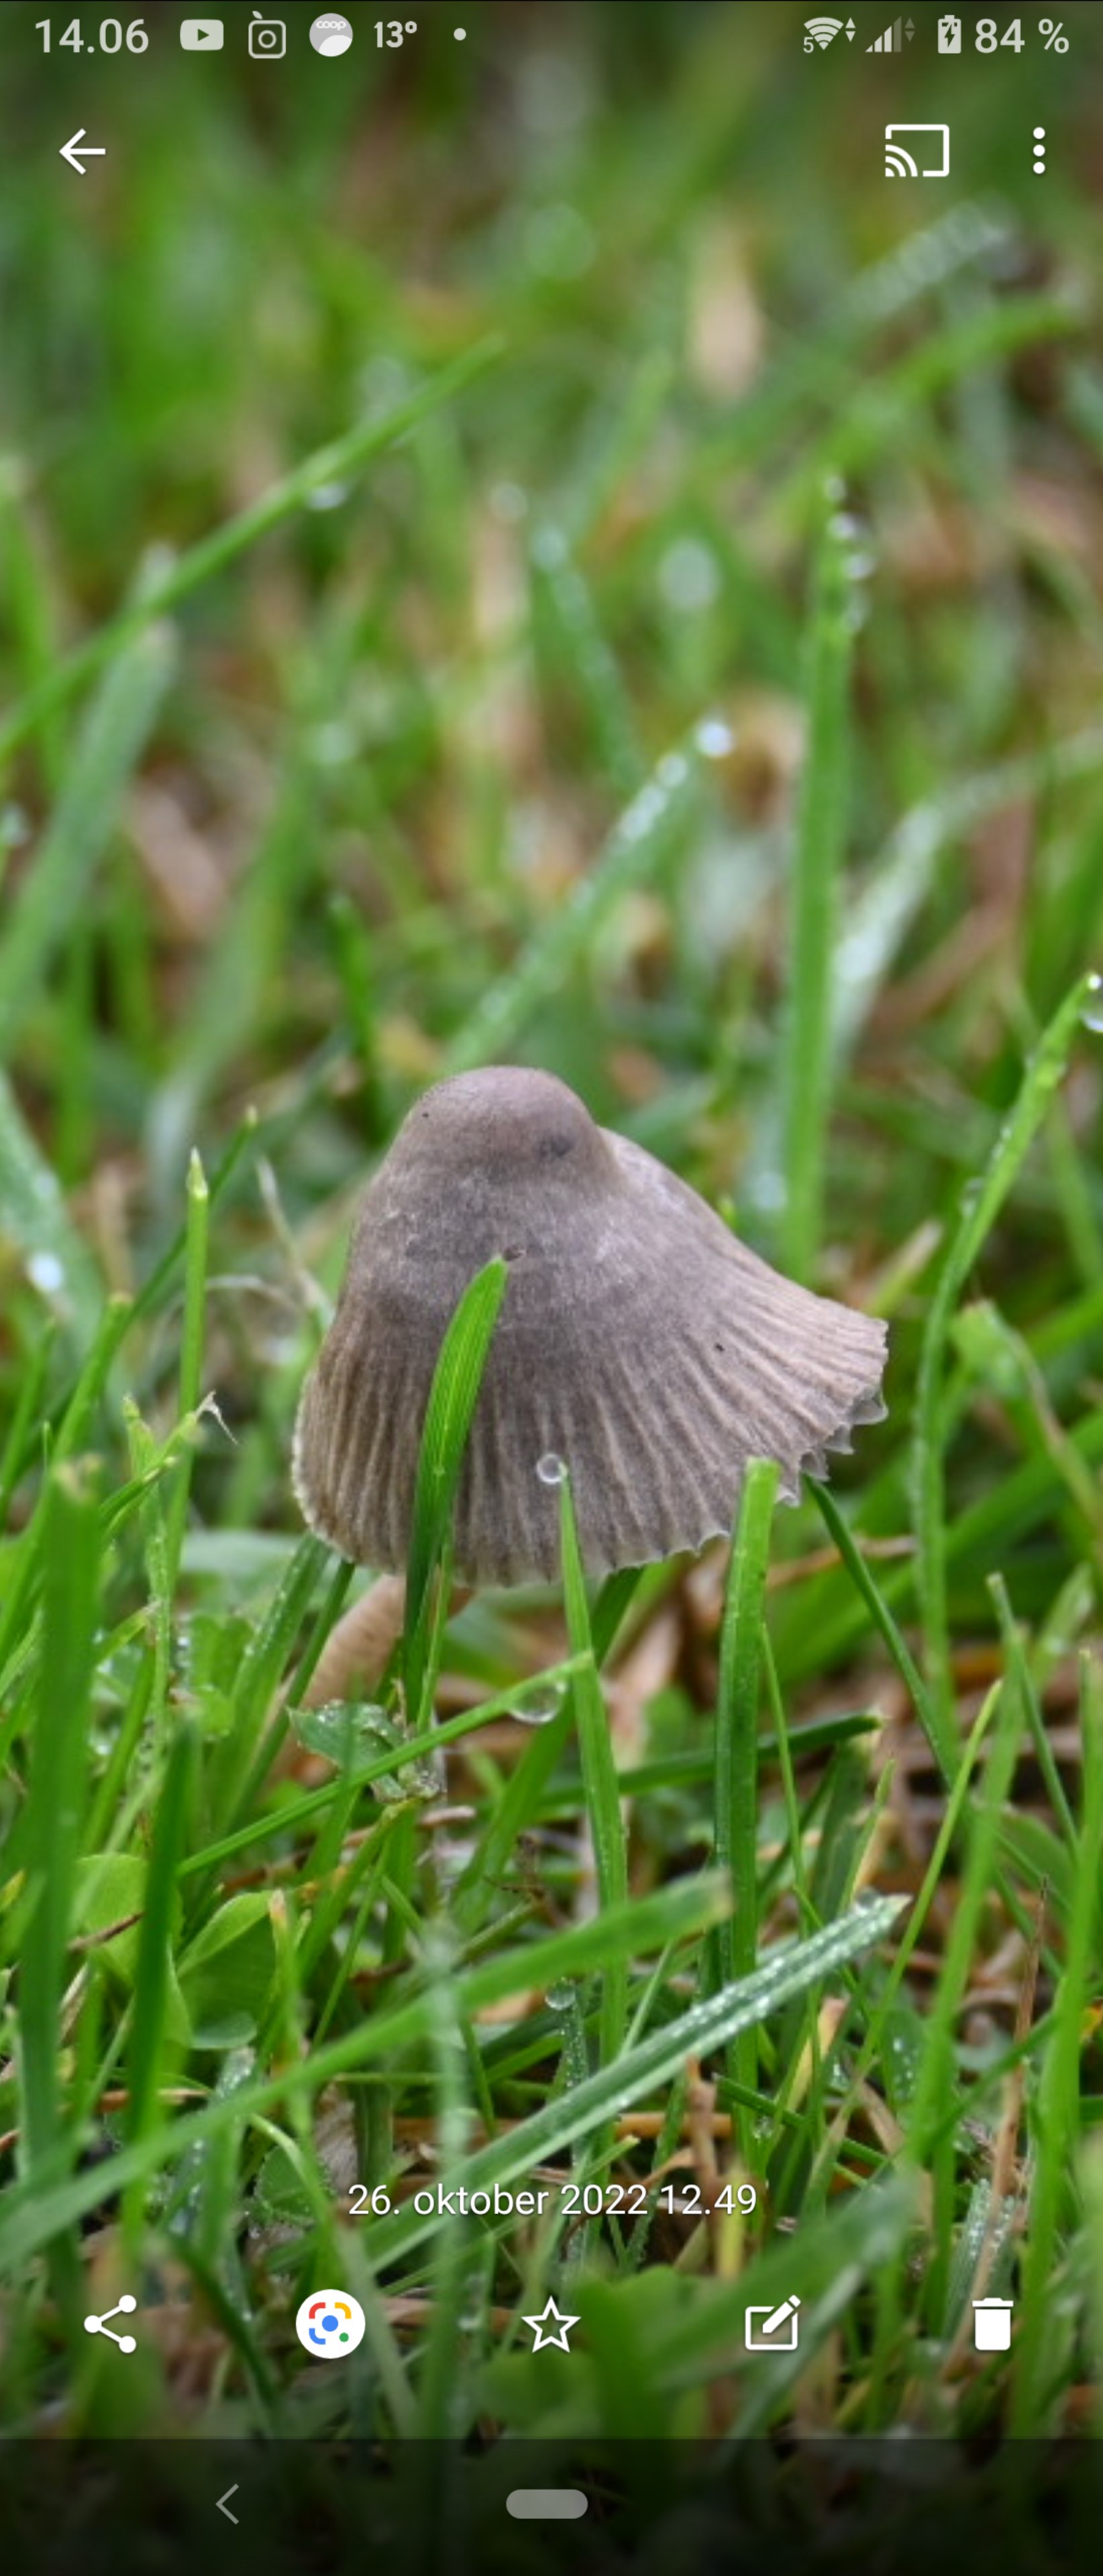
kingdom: Fungi
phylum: Basidiomycota
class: Agaricomycetes
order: Agaricales
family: Mycenaceae
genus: Mycena
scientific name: Mycena
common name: huesvamp
